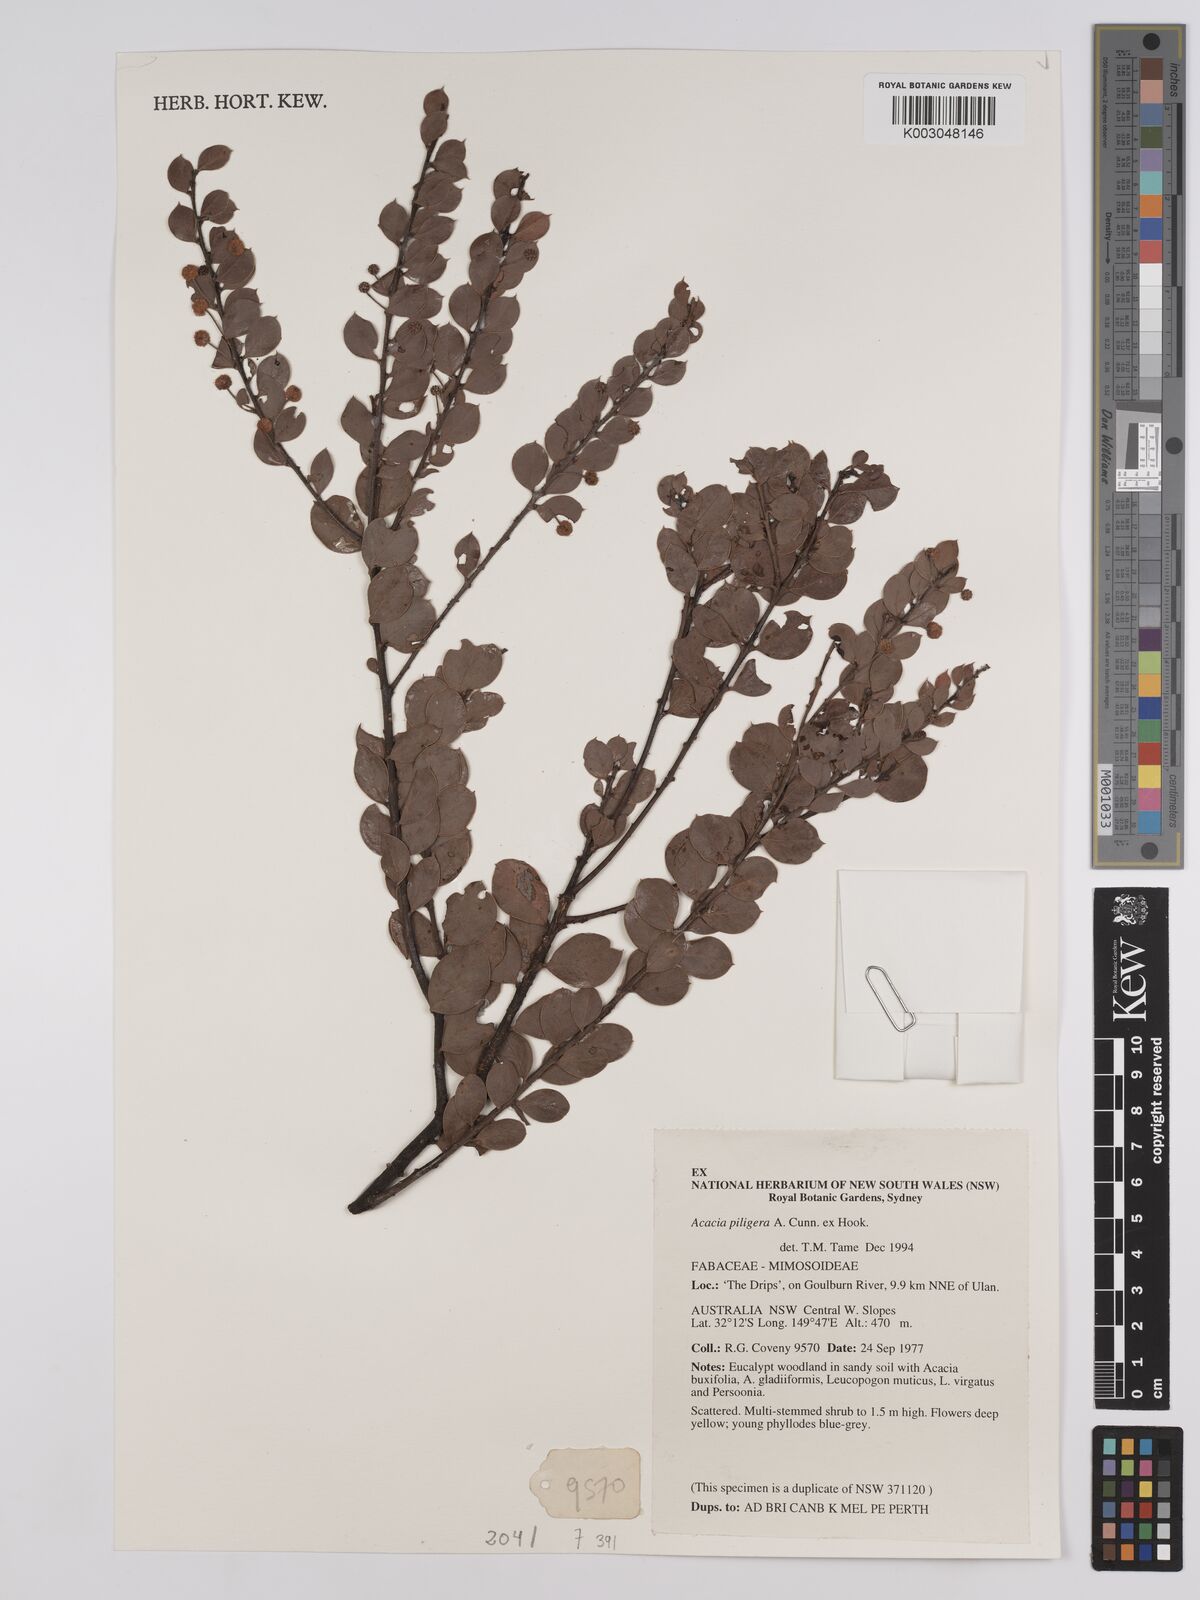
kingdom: Plantae
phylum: Tracheophyta
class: Magnoliopsida
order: Fabales
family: Fabaceae
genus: Acacia
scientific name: Acacia undulifolia
